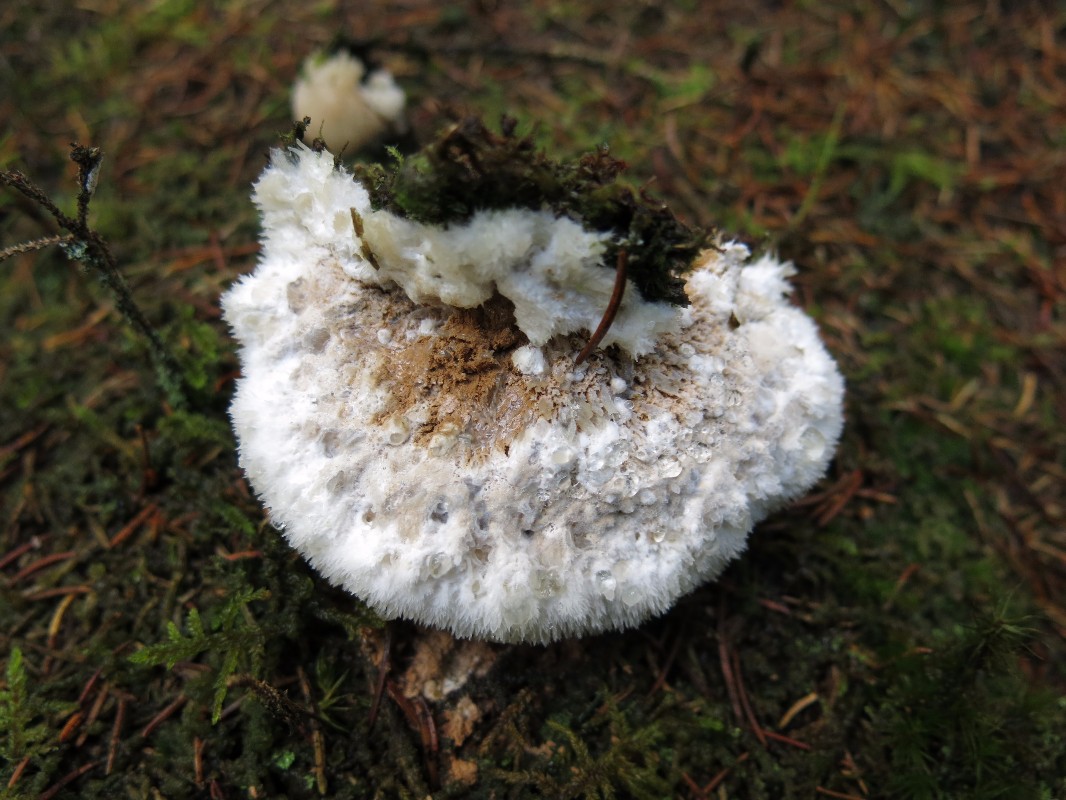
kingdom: Fungi
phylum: Basidiomycota
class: Agaricomycetes
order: Polyporales
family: Dacryobolaceae
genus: Postia
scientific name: Postia ptychogaster
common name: støvende kødporesvamp
